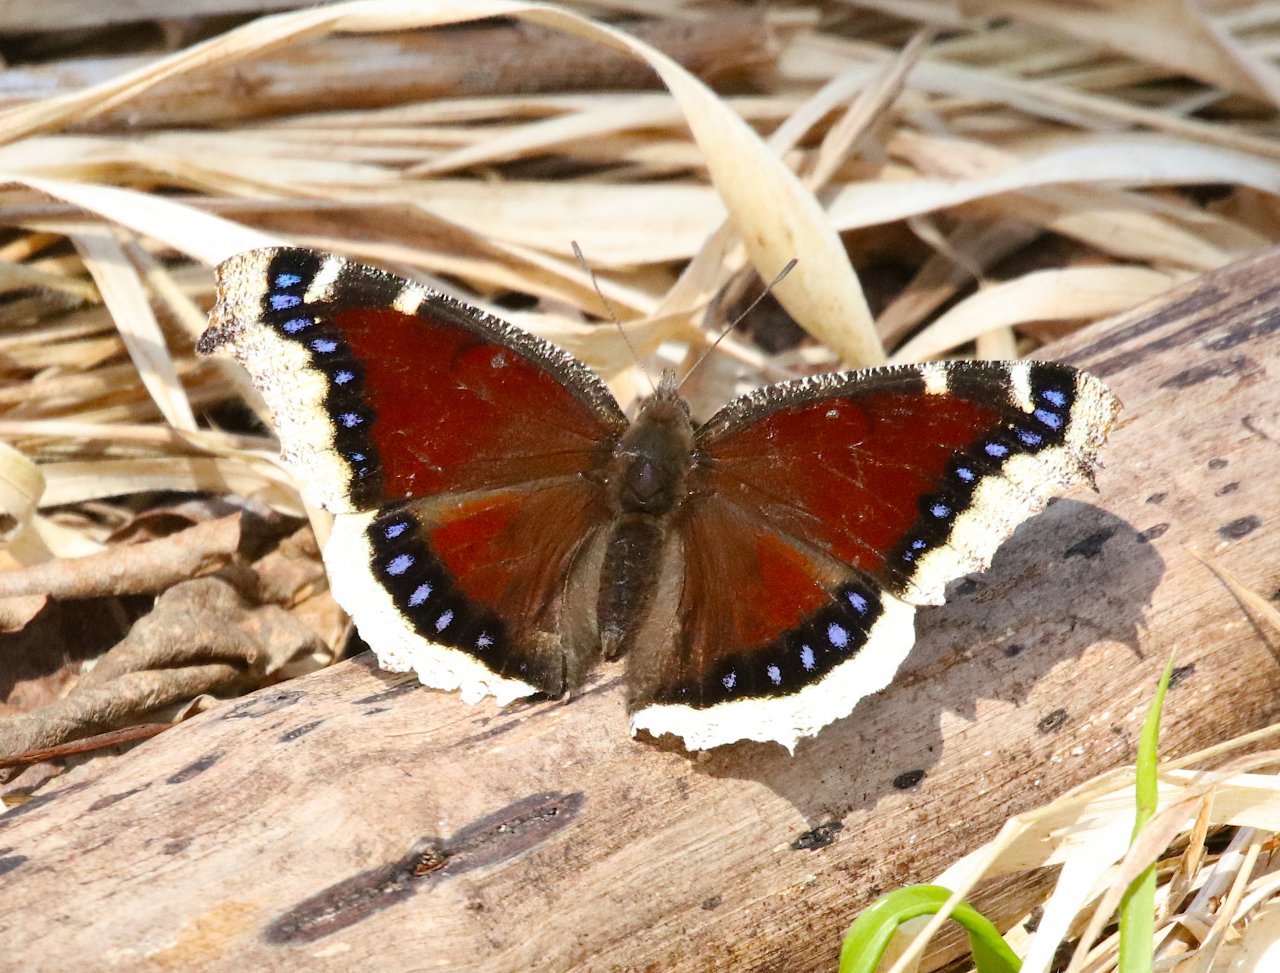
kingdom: Animalia
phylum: Arthropoda
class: Insecta
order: Lepidoptera
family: Nymphalidae
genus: Nymphalis
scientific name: Nymphalis antiopa
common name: Mourning Cloak
